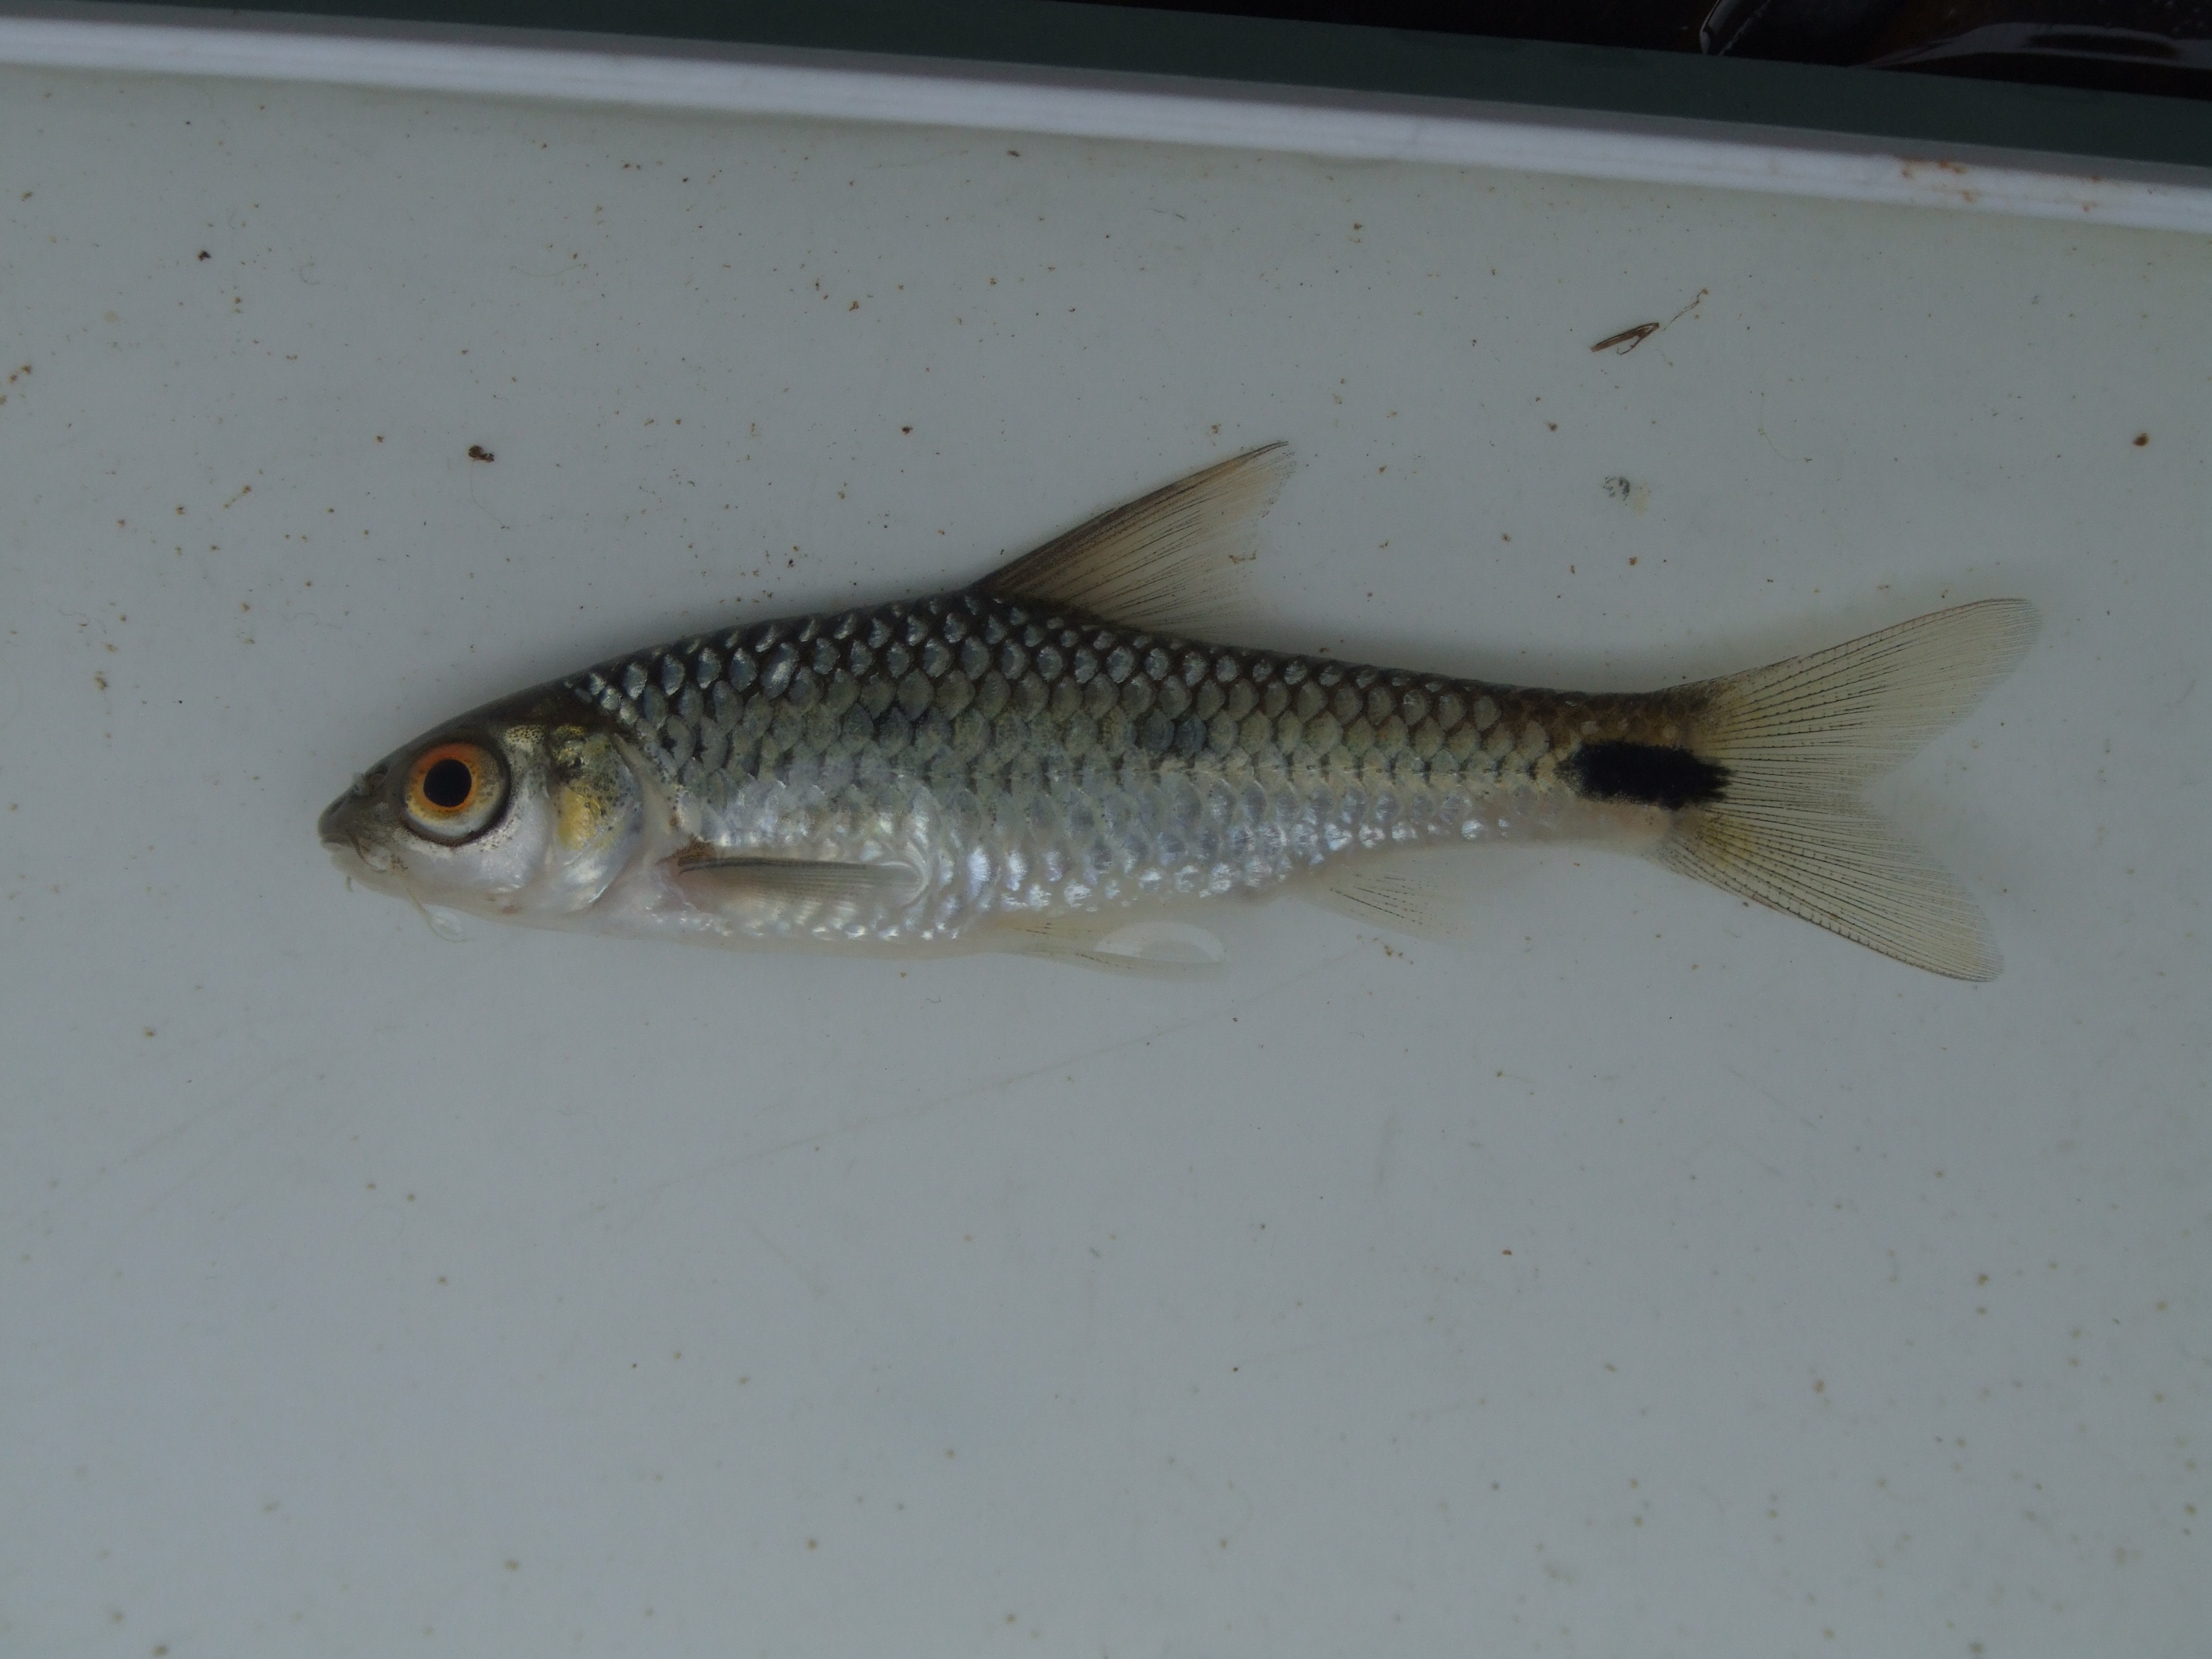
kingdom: Animalia
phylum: Chordata
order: Cypriniformes
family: Cyprinidae
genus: Enteromius
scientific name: Enteromius poechii
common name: Dashtail barb
